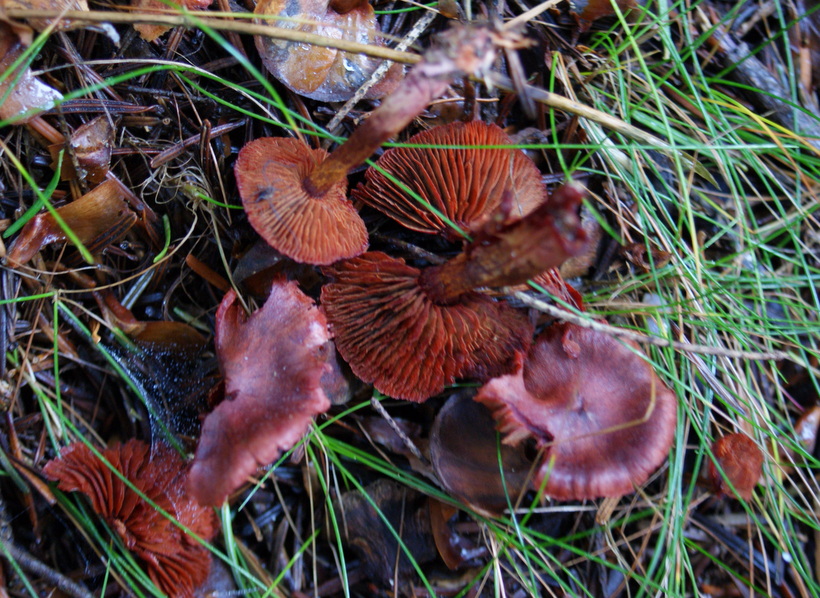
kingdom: Fungi
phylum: Basidiomycota
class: Agaricomycetes
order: Agaricales
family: Cortinariaceae
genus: Cortinarius
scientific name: Cortinarius sanguineus
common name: blodrød slørhat
